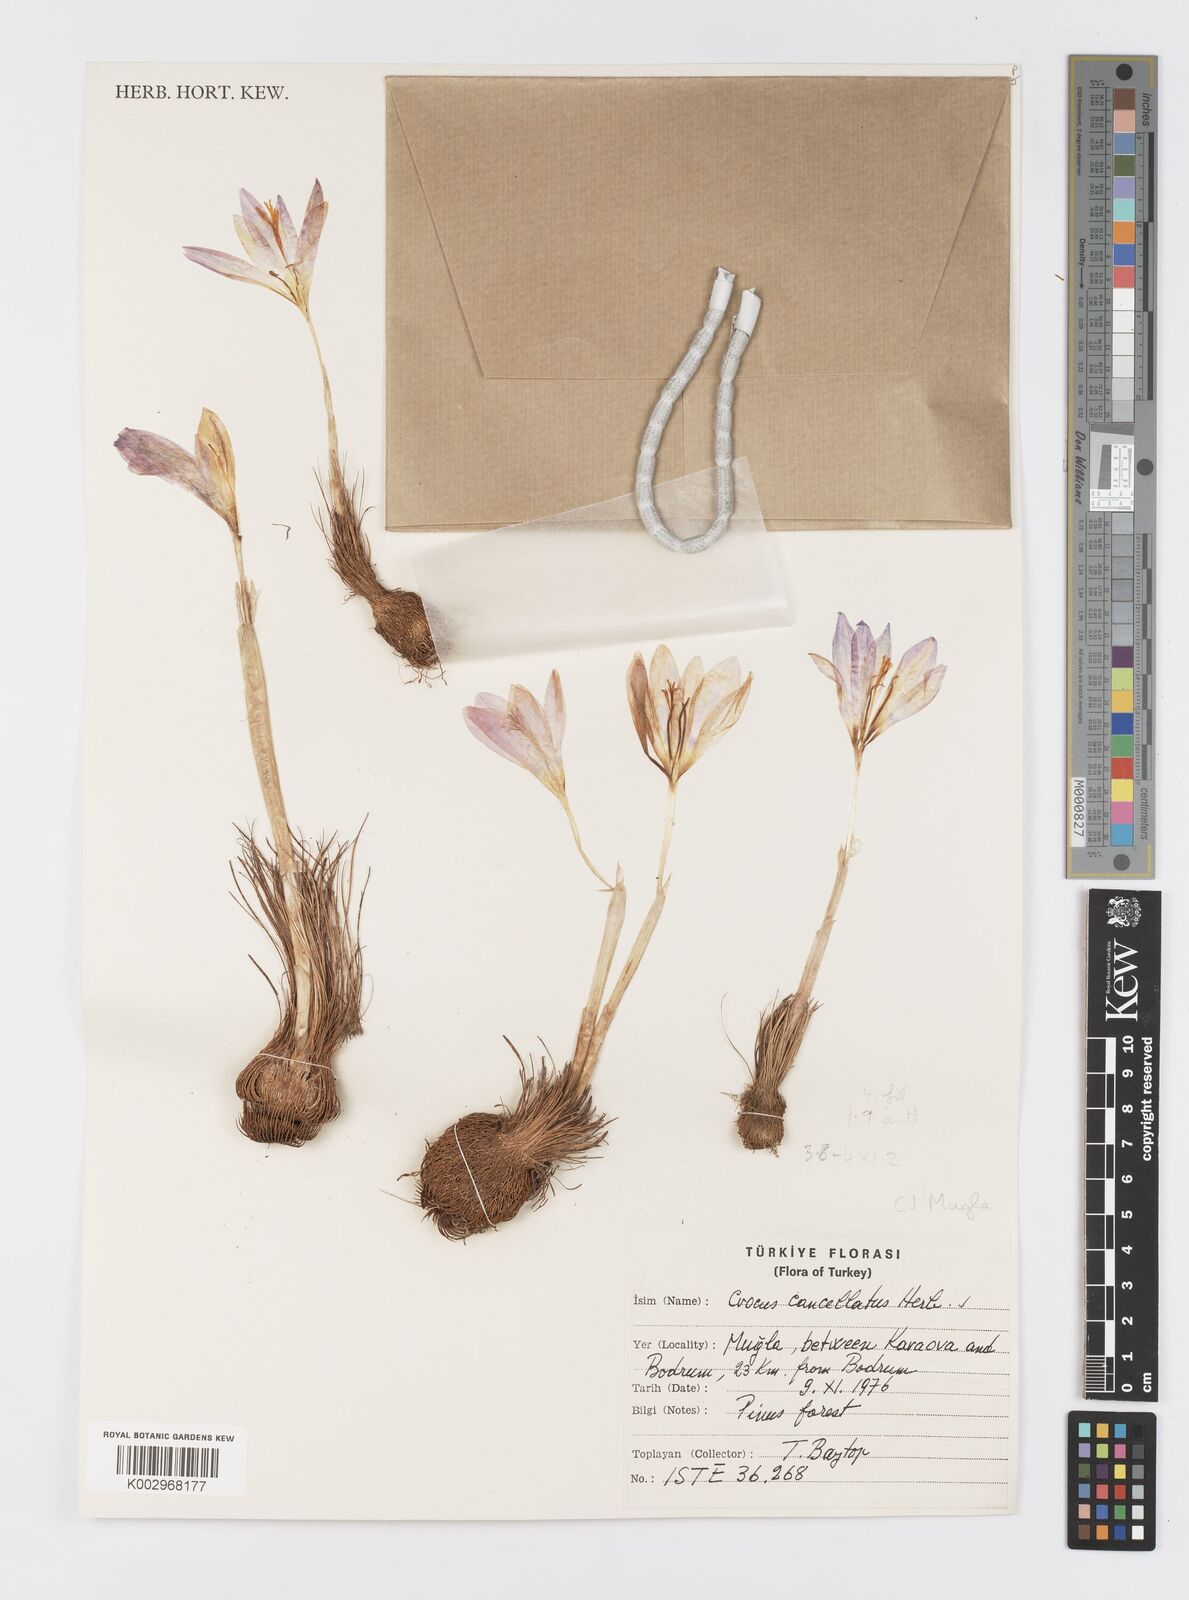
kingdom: Plantae
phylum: Tracheophyta
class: Liliopsida
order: Asparagales
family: Iridaceae
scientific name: Iridaceae
